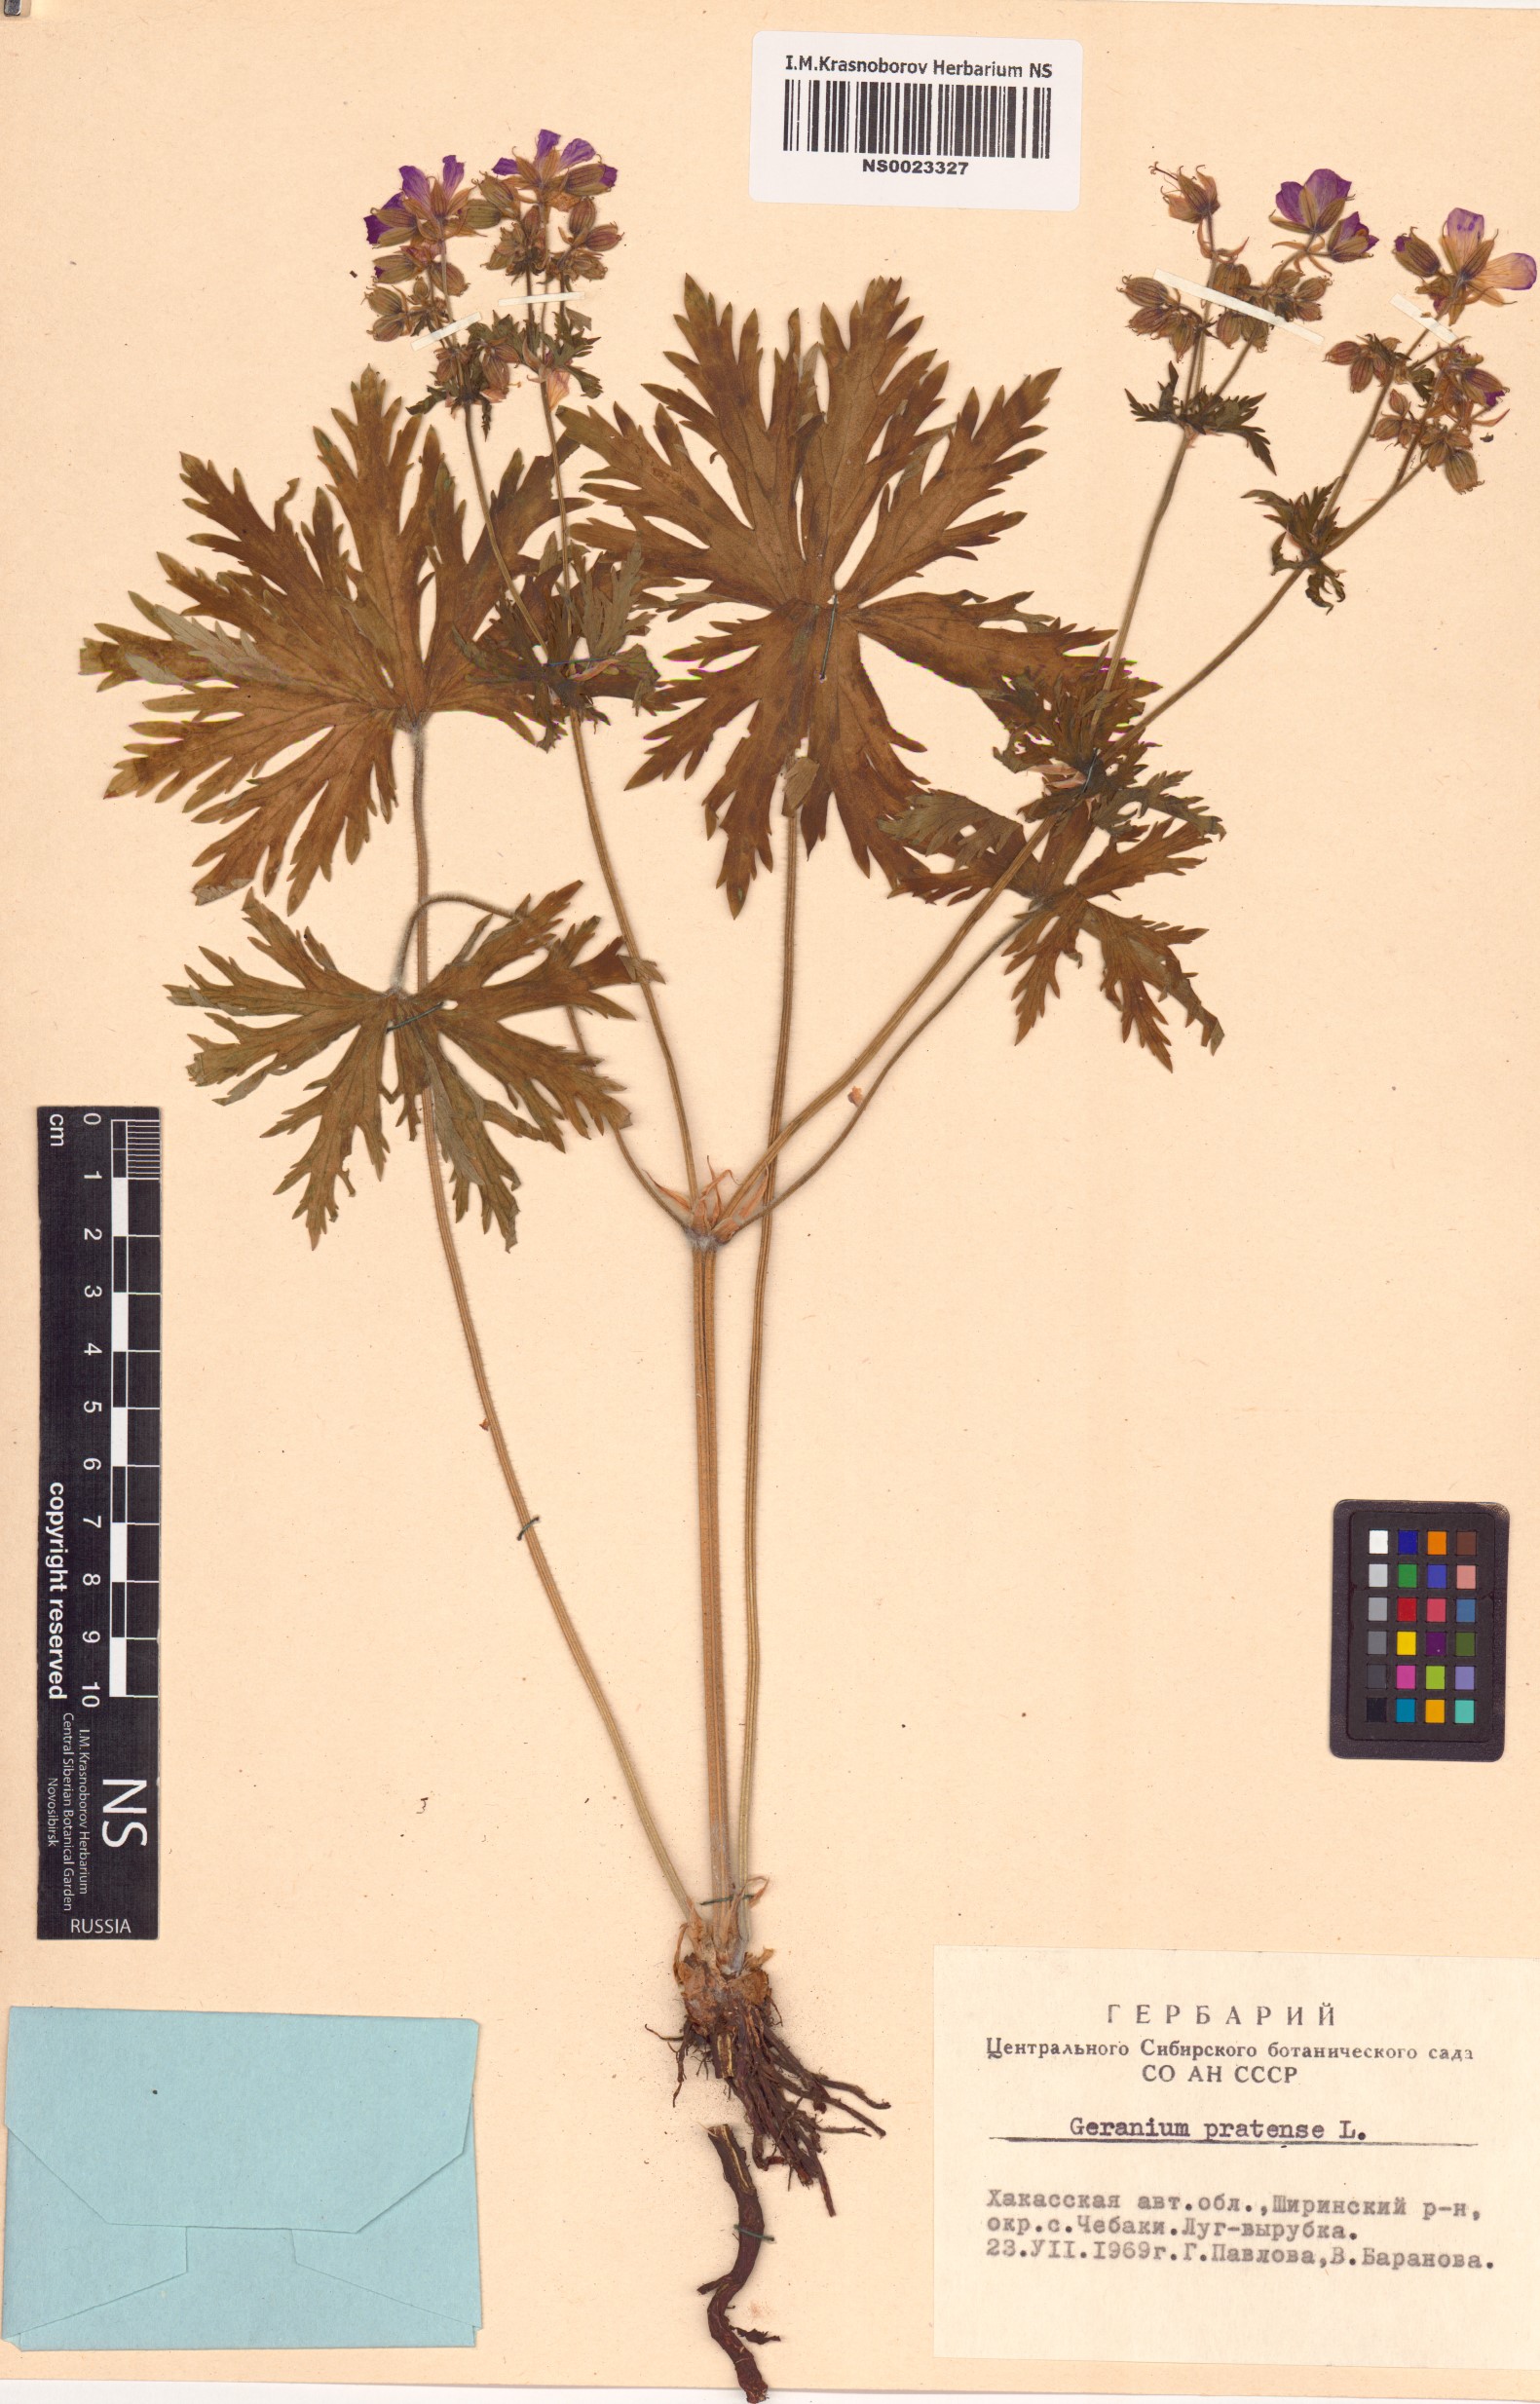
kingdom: Plantae
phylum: Tracheophyta
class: Magnoliopsida
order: Geraniales
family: Geraniaceae
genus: Geranium
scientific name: Geranium pratense
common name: Meadow crane's-bill
